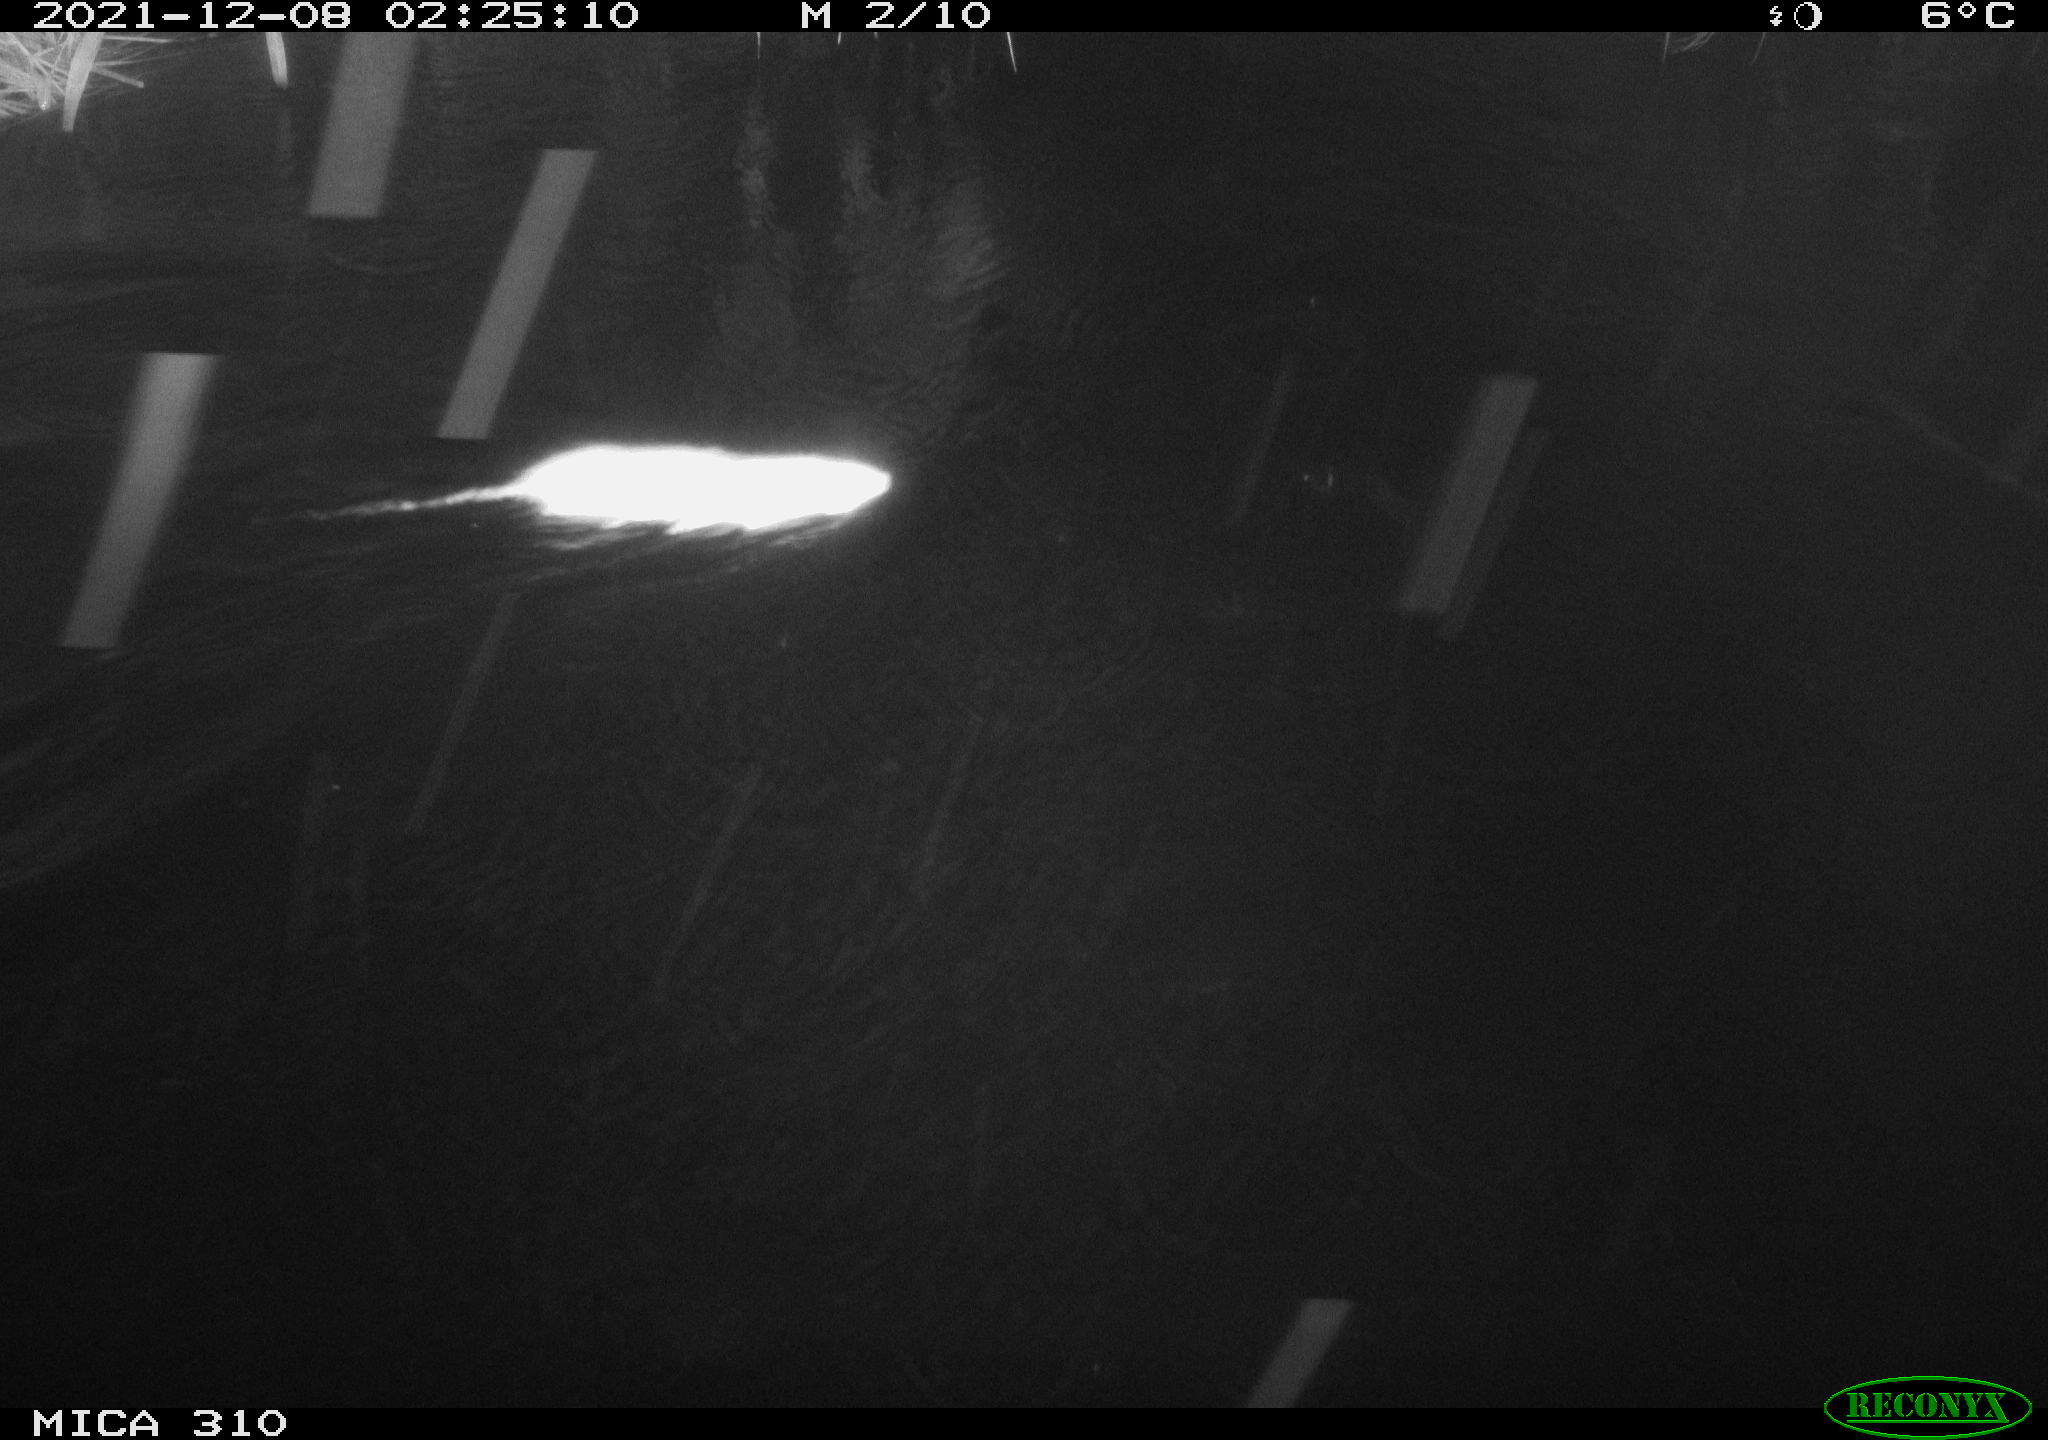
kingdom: Animalia
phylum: Chordata
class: Mammalia
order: Rodentia
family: Muridae
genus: Rattus
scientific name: Rattus norvegicus
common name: Brown rat
